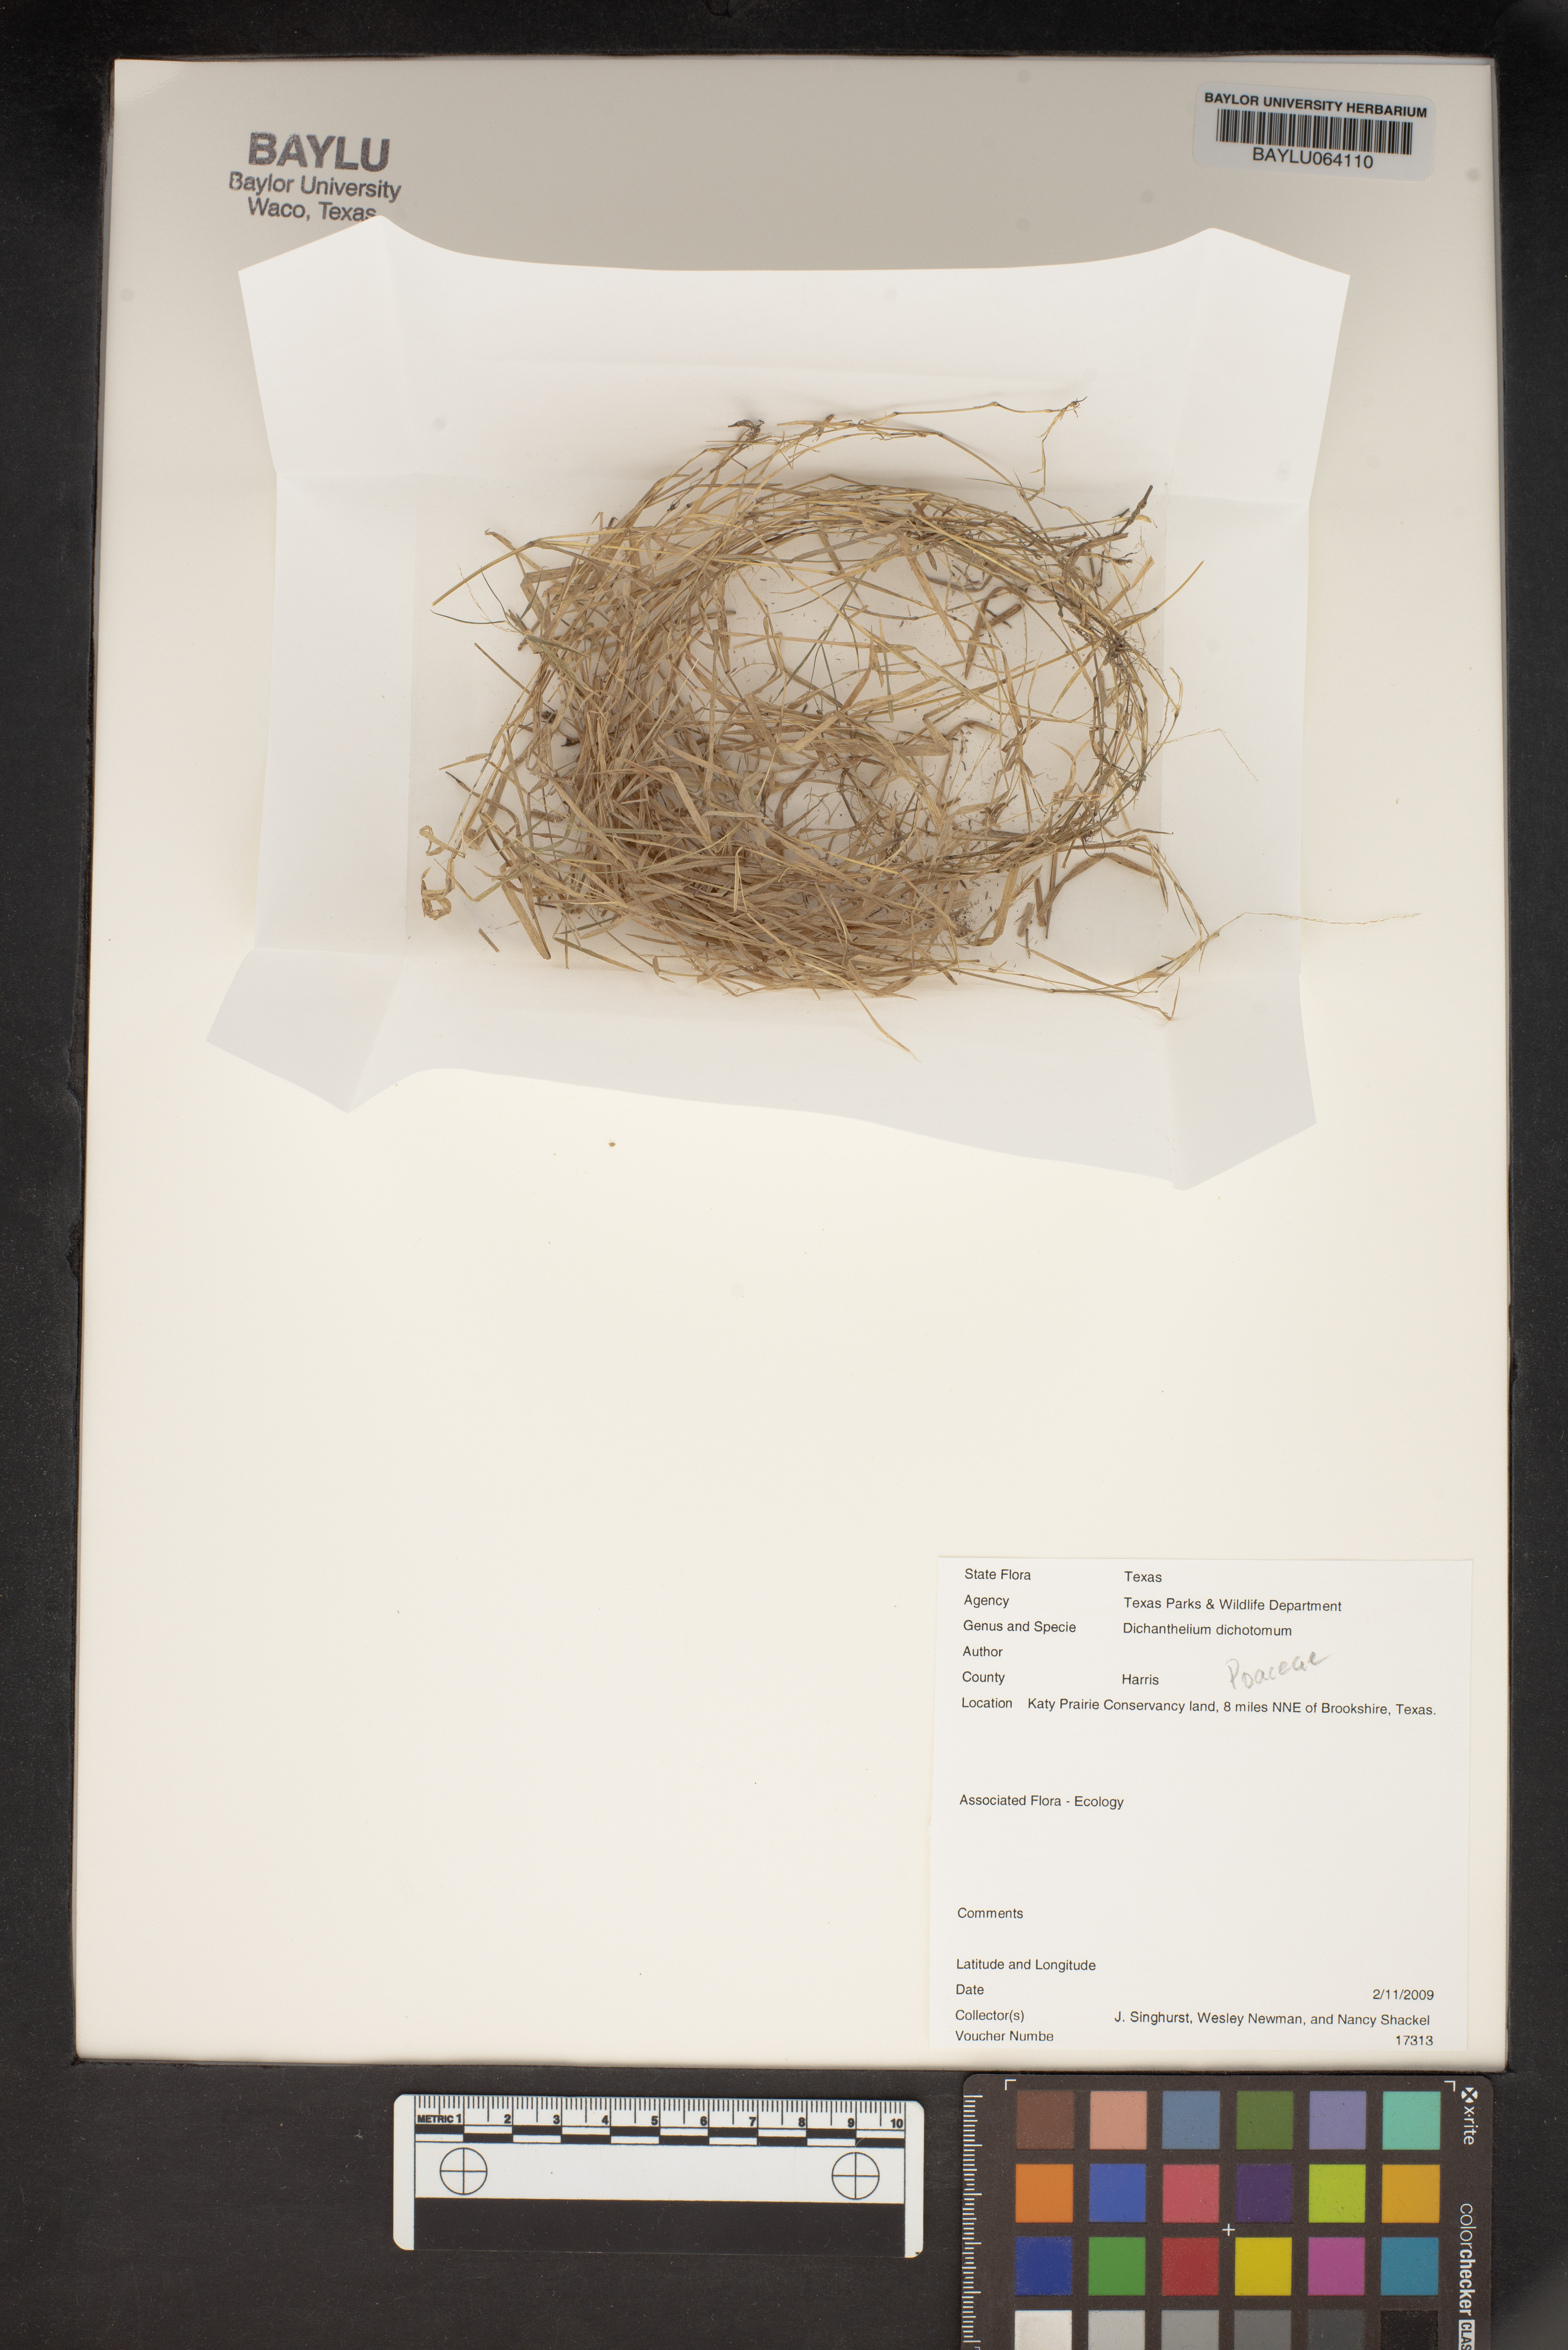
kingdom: Plantae
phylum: Tracheophyta
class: Liliopsida
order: Poales
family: Poaceae
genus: Dichanthelium
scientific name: Dichanthelium dichotomum
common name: Cypress panicgrass
